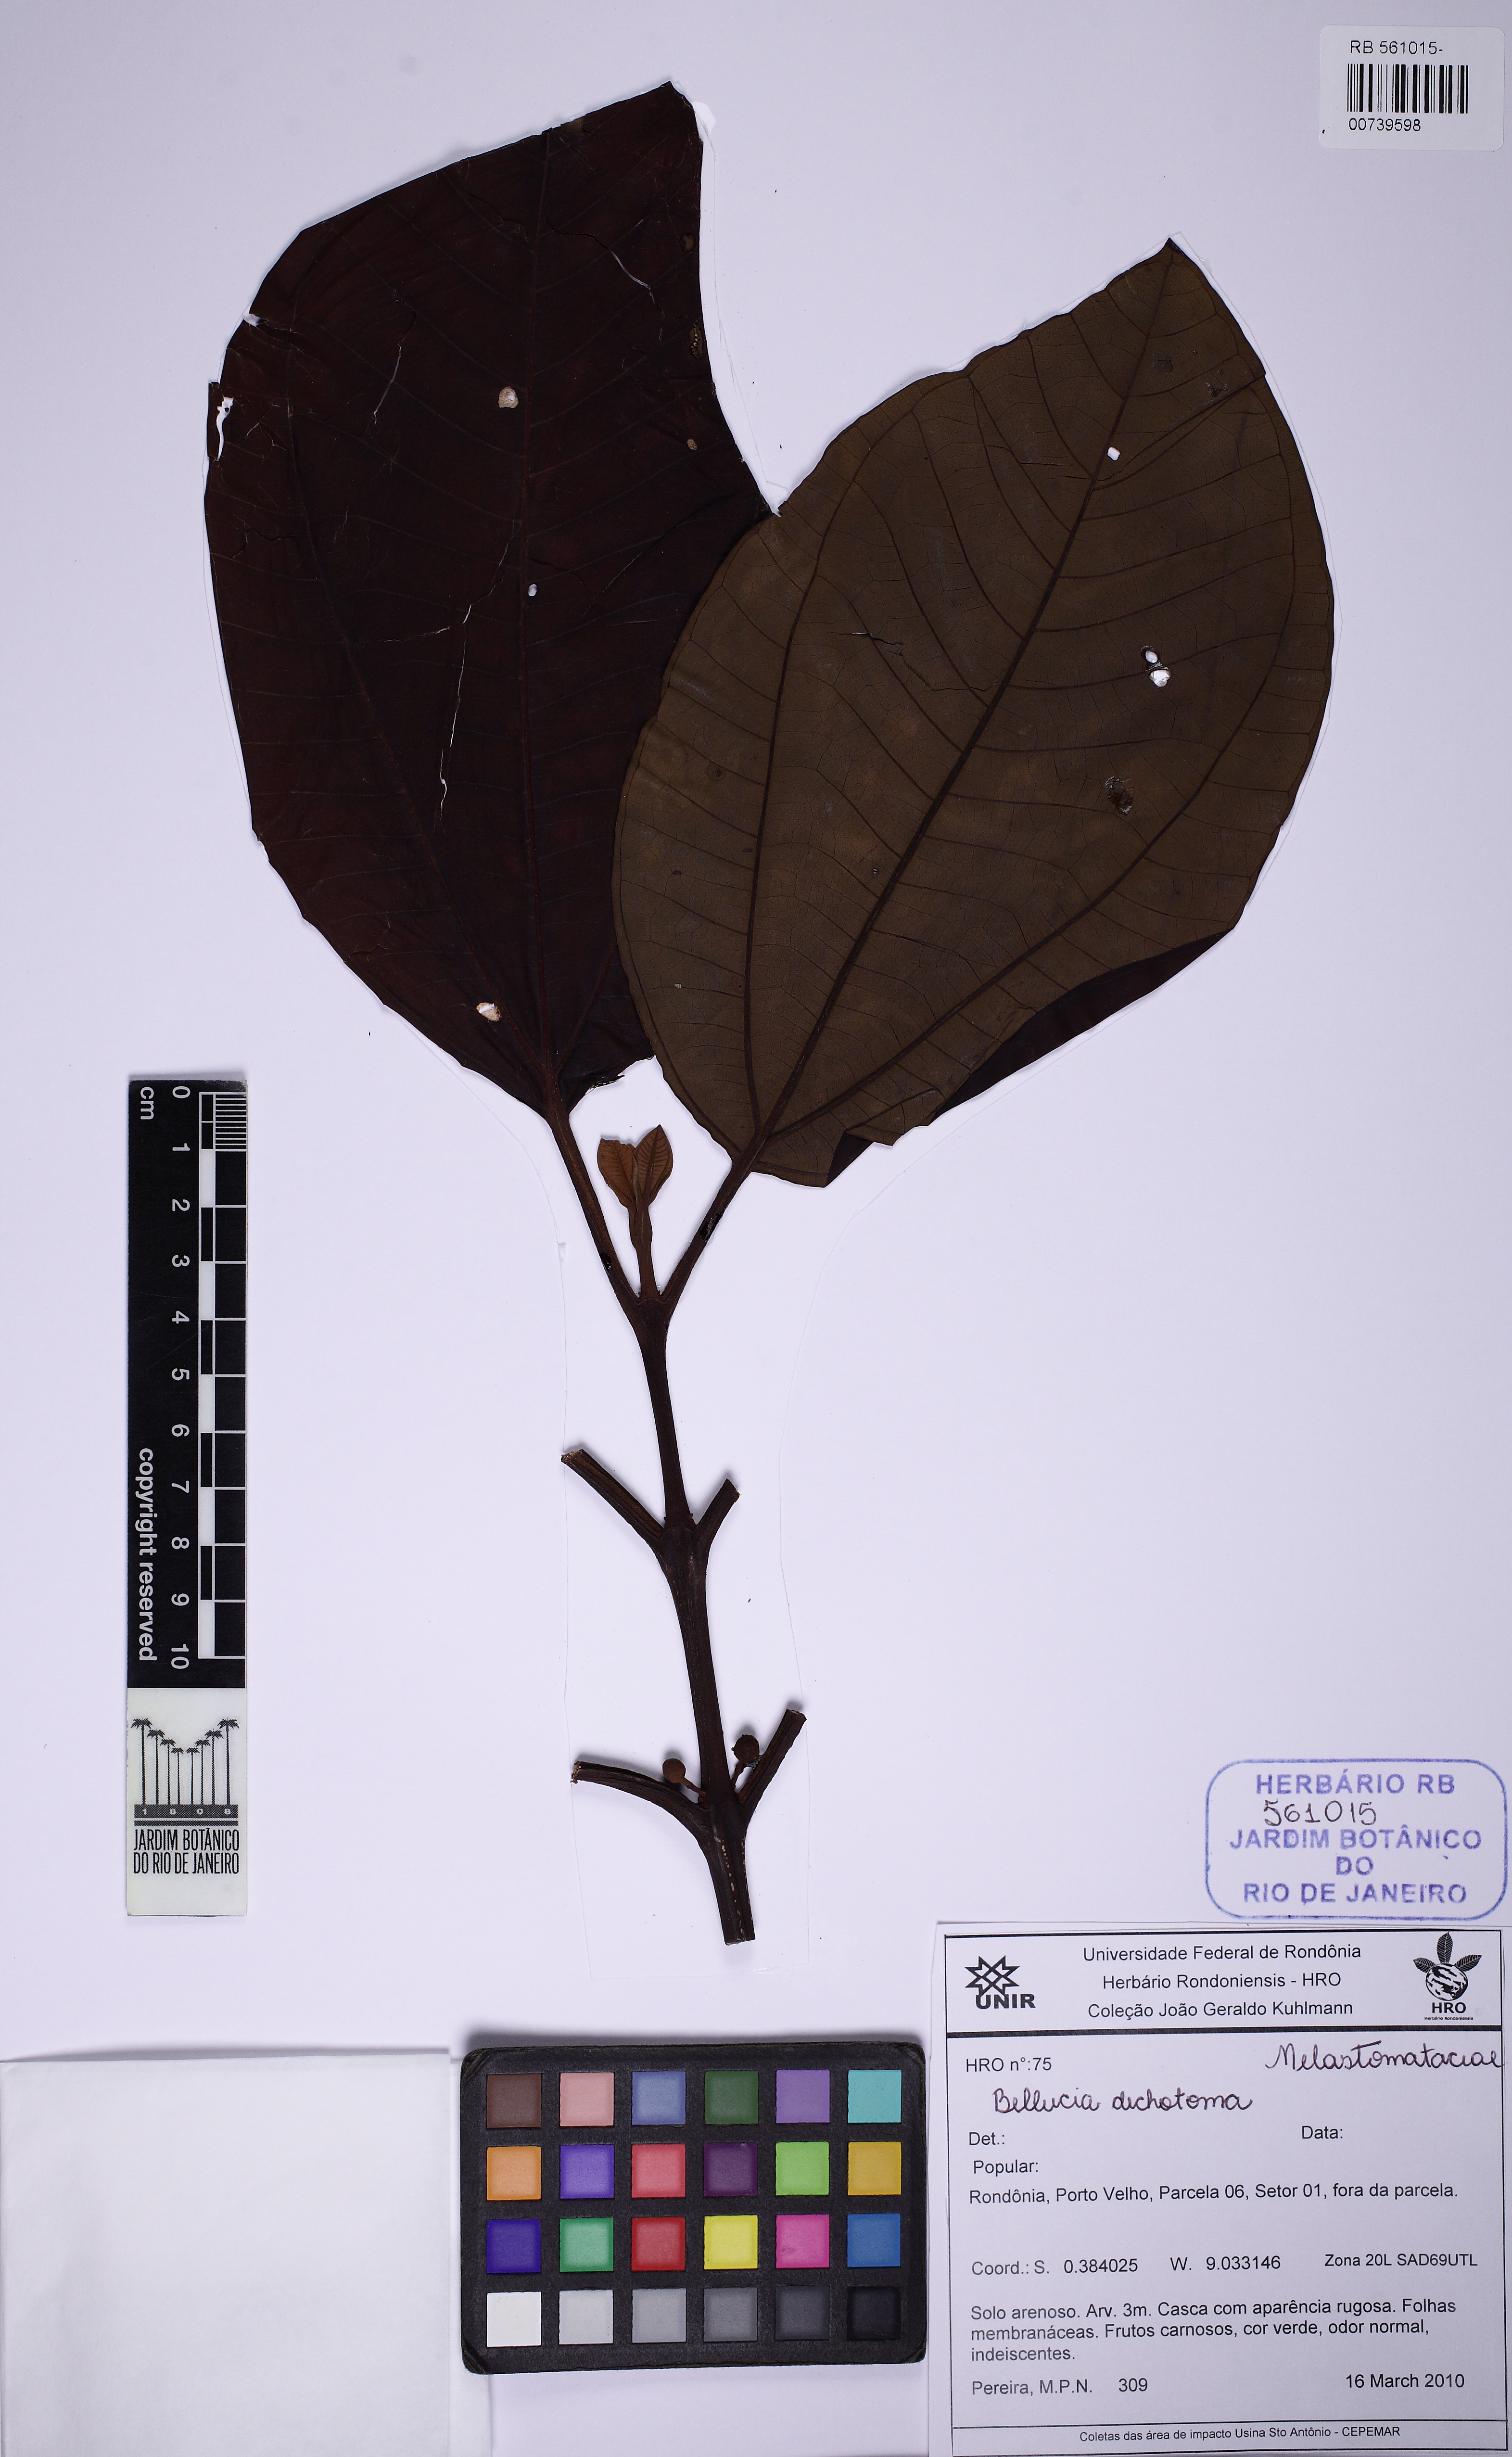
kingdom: Plantae
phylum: Tracheophyta
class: Magnoliopsida
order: Myrtales
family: Melastomataceae
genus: Bellucia
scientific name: Bellucia imperialis
